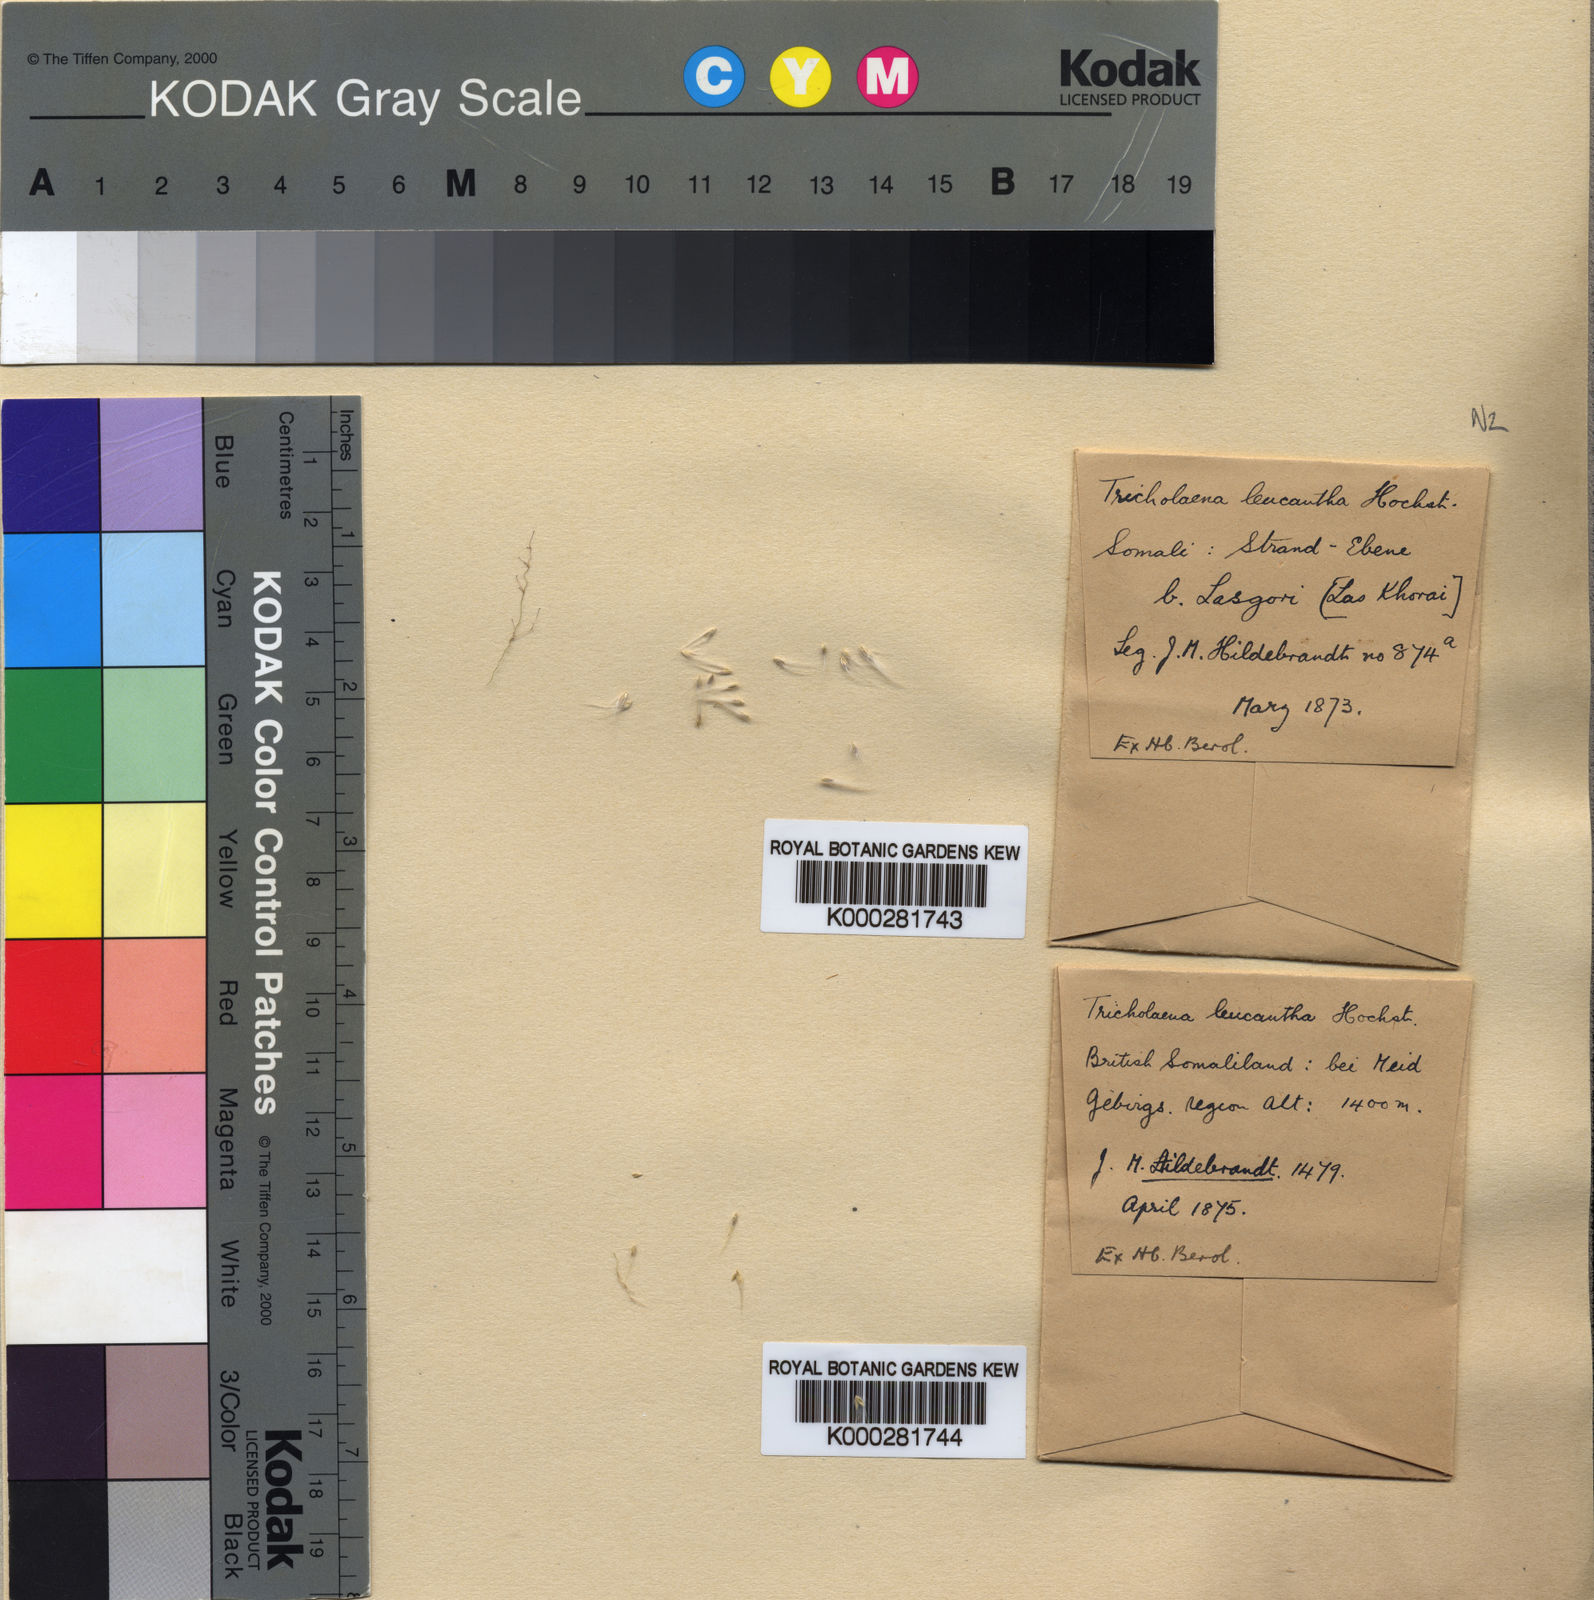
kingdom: Plantae
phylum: Tracheophyta
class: Liliopsida
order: Poales
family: Poaceae
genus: Tricholaena
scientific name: Tricholaena teneriffae
